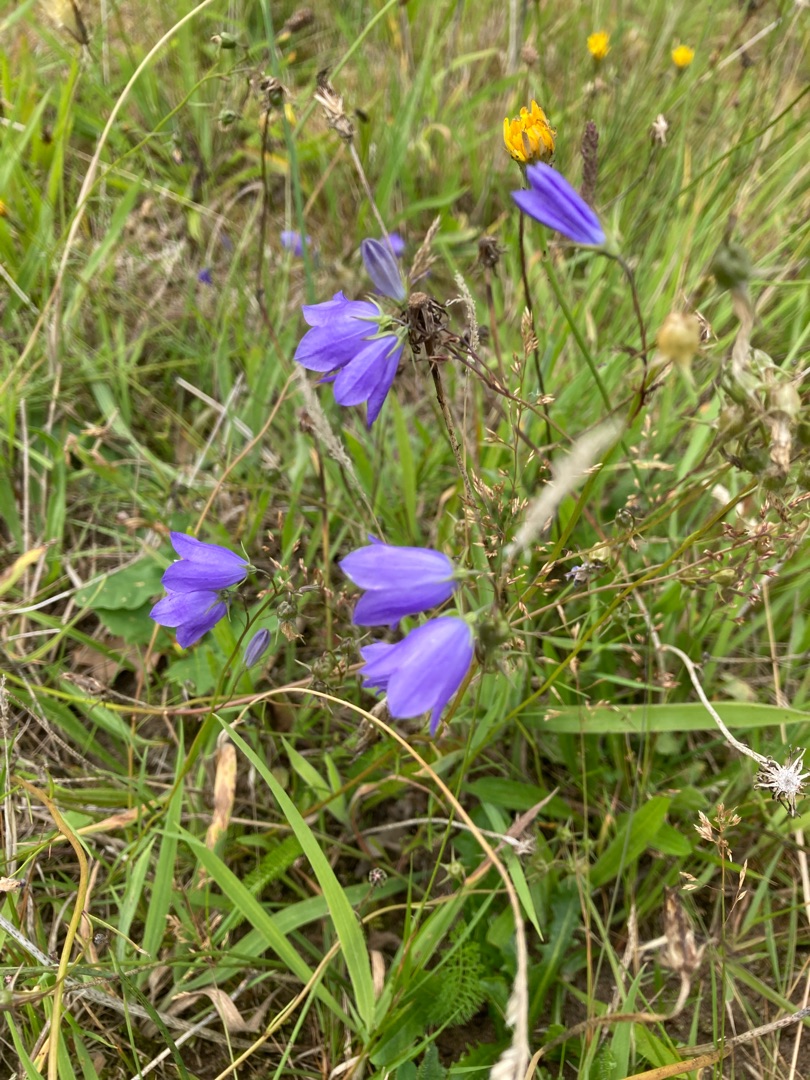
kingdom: Plantae
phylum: Tracheophyta
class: Magnoliopsida
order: Asterales
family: Campanulaceae
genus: Campanula
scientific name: Campanula rotundifolia
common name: Liden klokke
